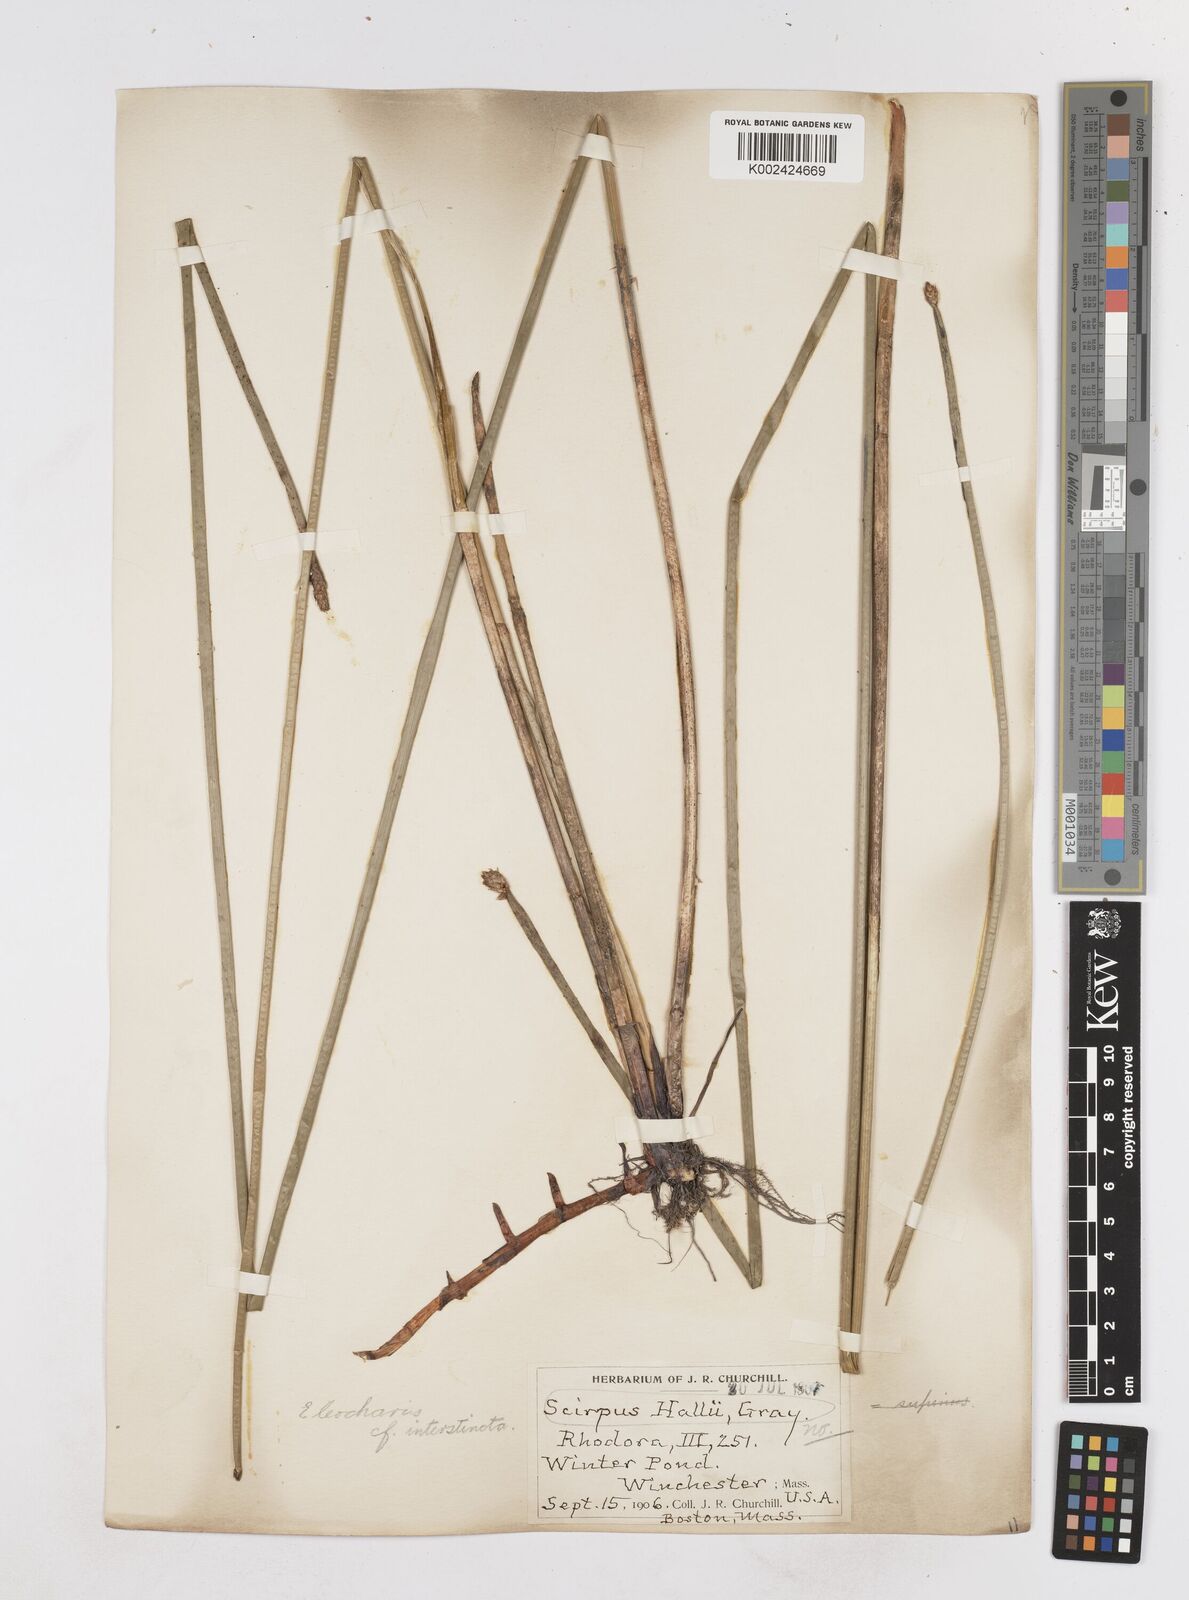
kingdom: Plantae
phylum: Tracheophyta
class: Liliopsida
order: Poales
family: Cyperaceae
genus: Eleocharis
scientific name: Eleocharis interstincta
